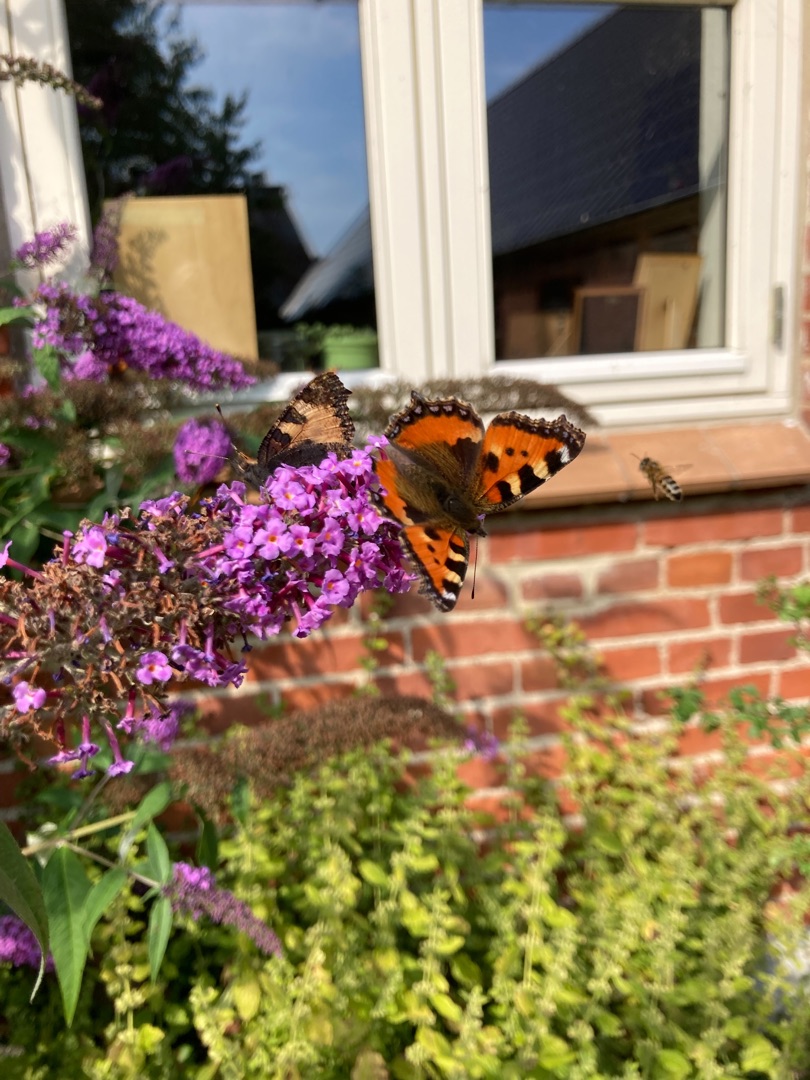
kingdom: Animalia
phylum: Arthropoda
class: Insecta
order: Lepidoptera
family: Nymphalidae
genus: Aglais
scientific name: Aglais urticae
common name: Nældens takvinge
